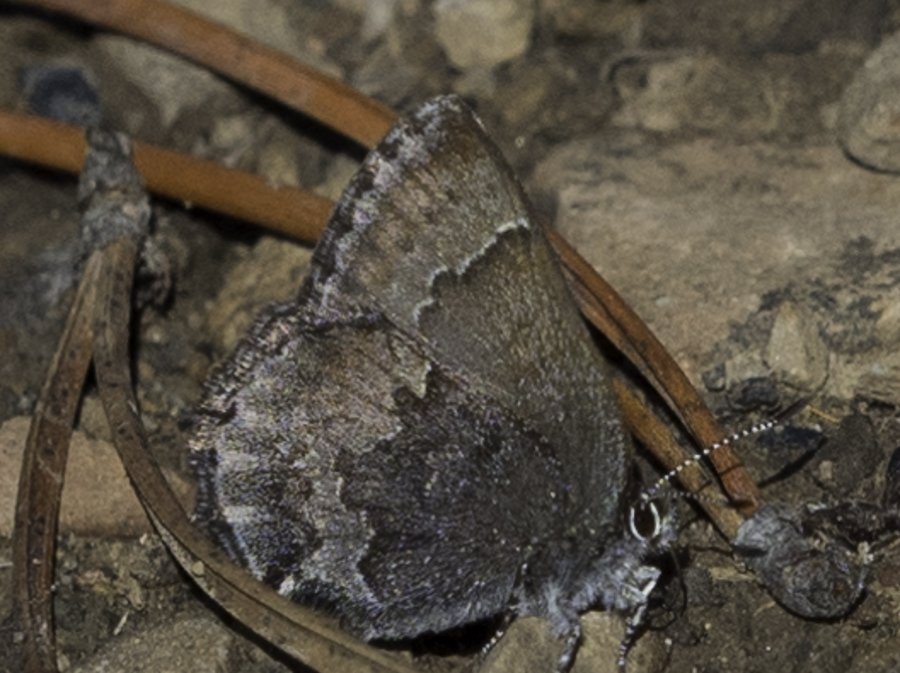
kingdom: Animalia
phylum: Arthropoda
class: Insecta
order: Lepidoptera
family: Lycaenidae
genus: Callophrys
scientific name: Callophrys polios
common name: Hoary Elfin
